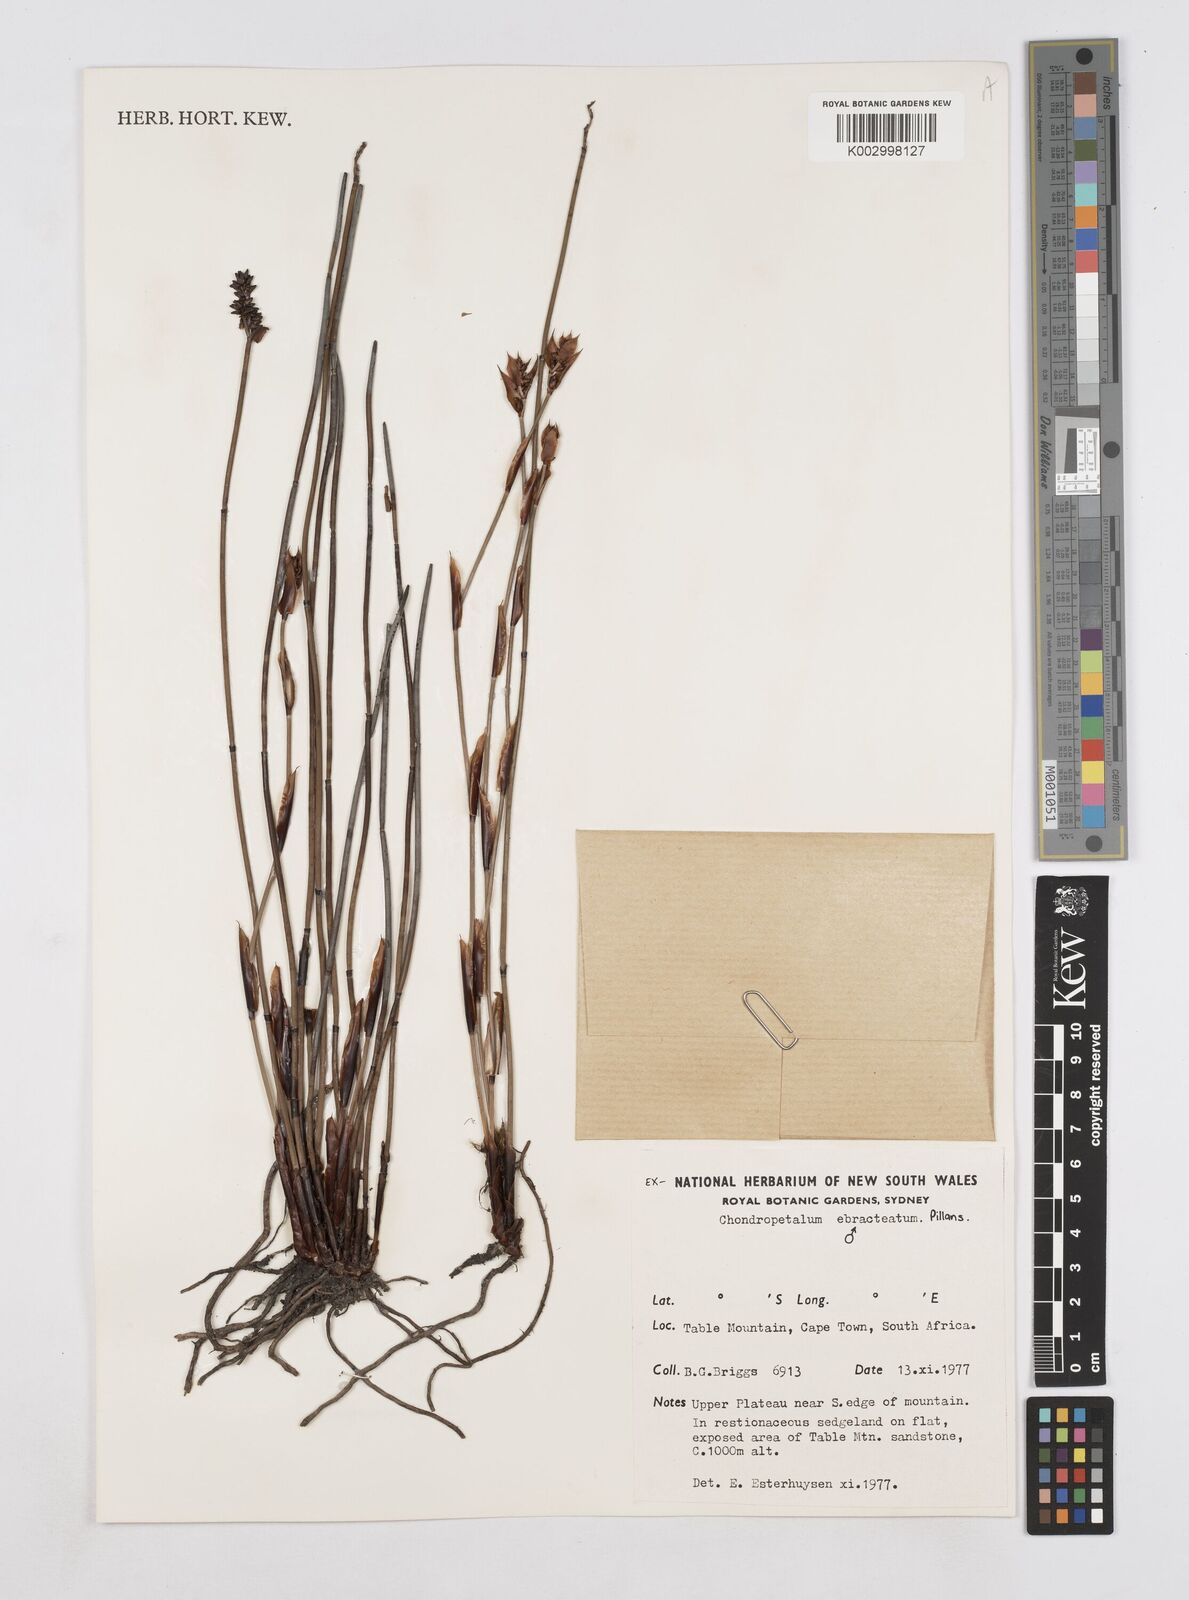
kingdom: Plantae
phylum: Tracheophyta
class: Liliopsida
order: Poales
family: Restionaceae
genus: Elegia
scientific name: Elegia ebracteata
